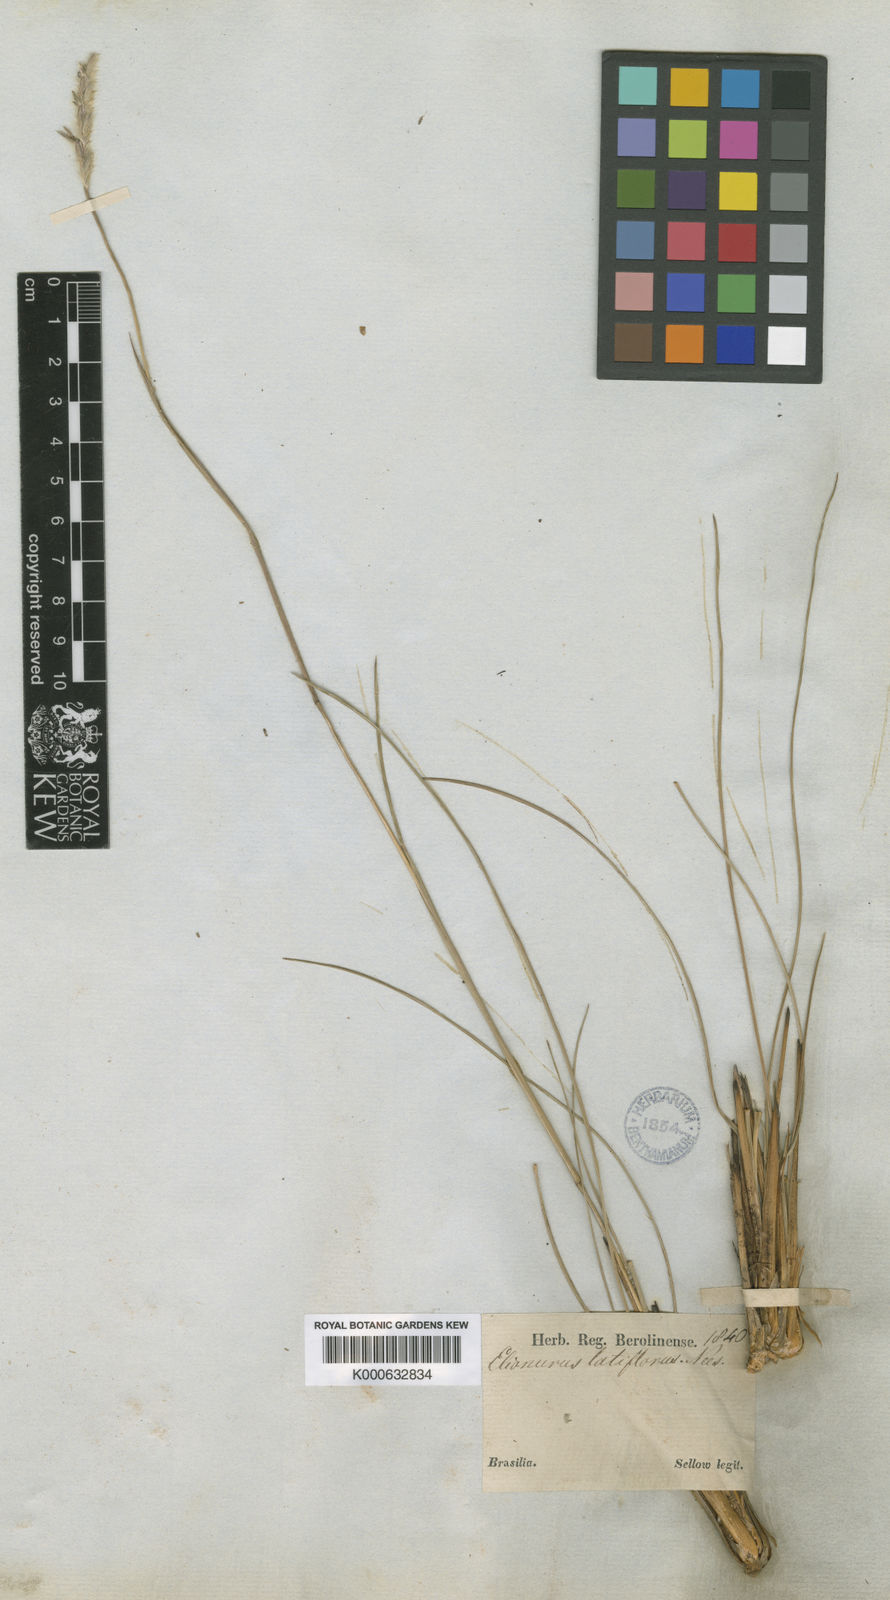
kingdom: Plantae
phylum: Tracheophyta
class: Liliopsida
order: Poales
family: Poaceae
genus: Elionurus
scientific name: Elionurus muticus
